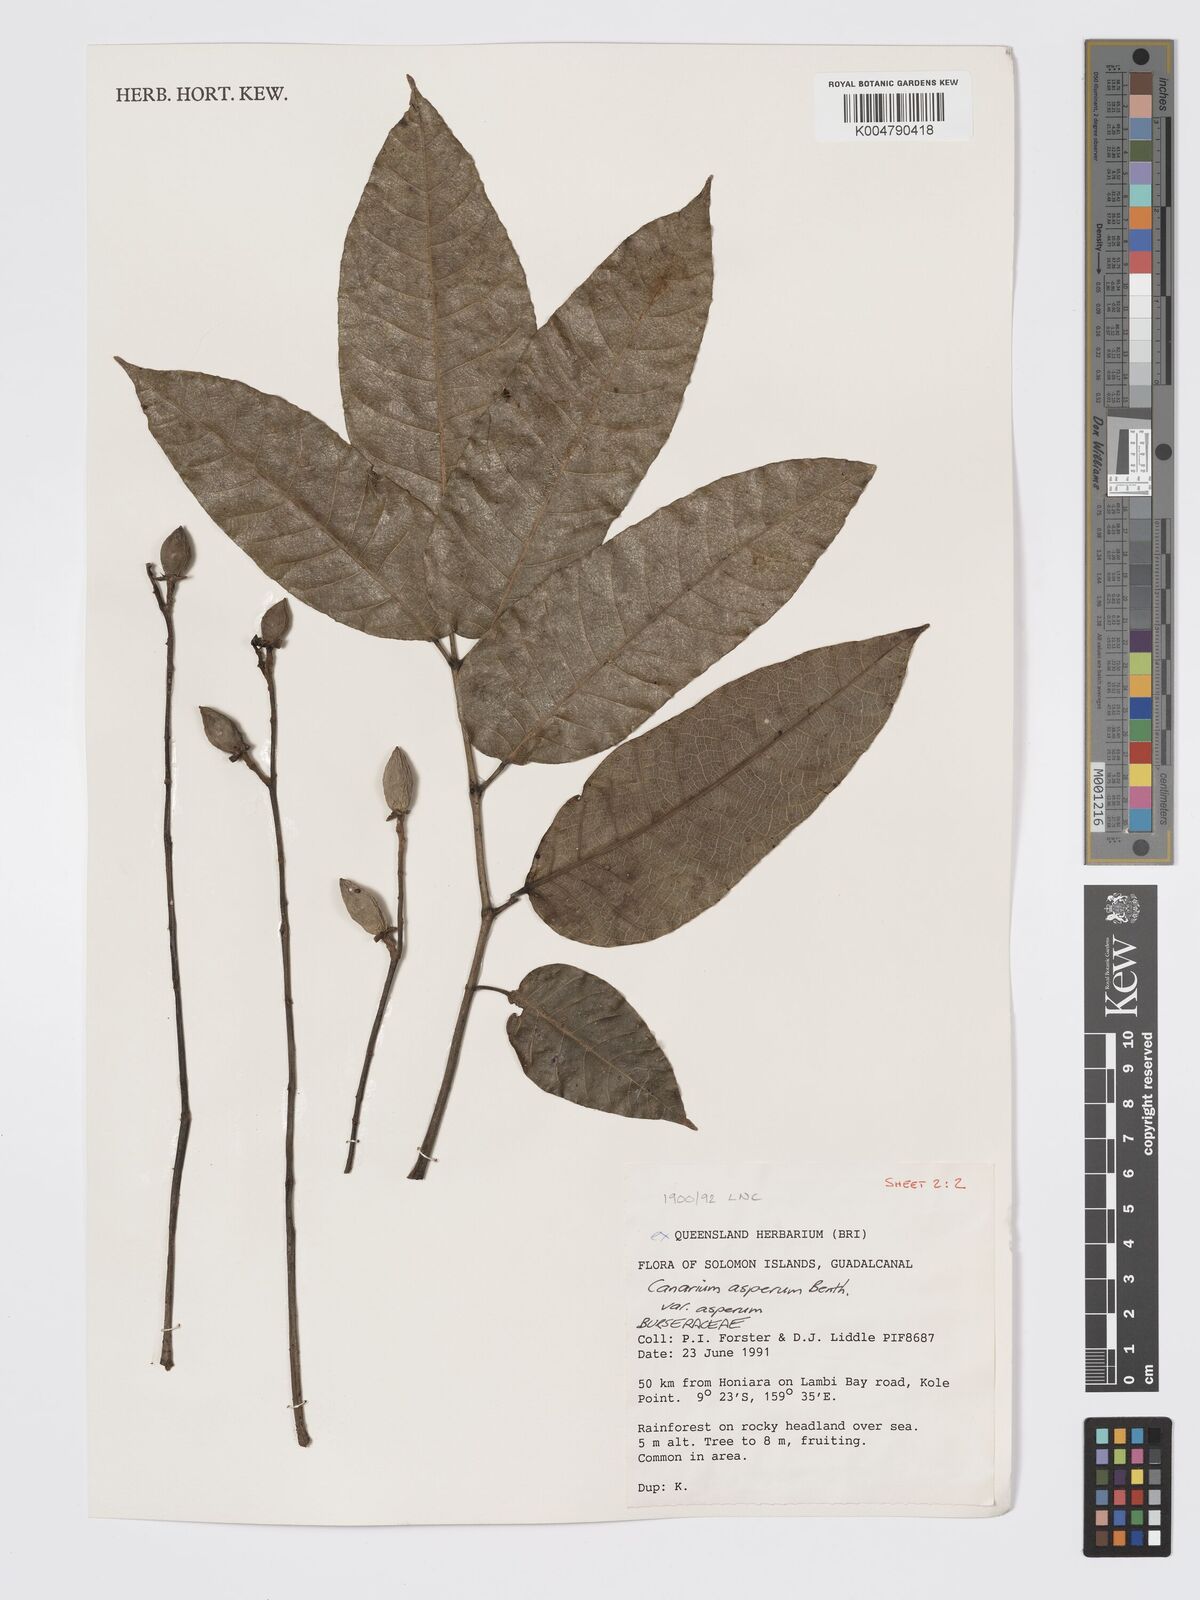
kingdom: Plantae
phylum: Tracheophyta
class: Magnoliopsida
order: Sapindales
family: Burseraceae
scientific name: Burseraceae
